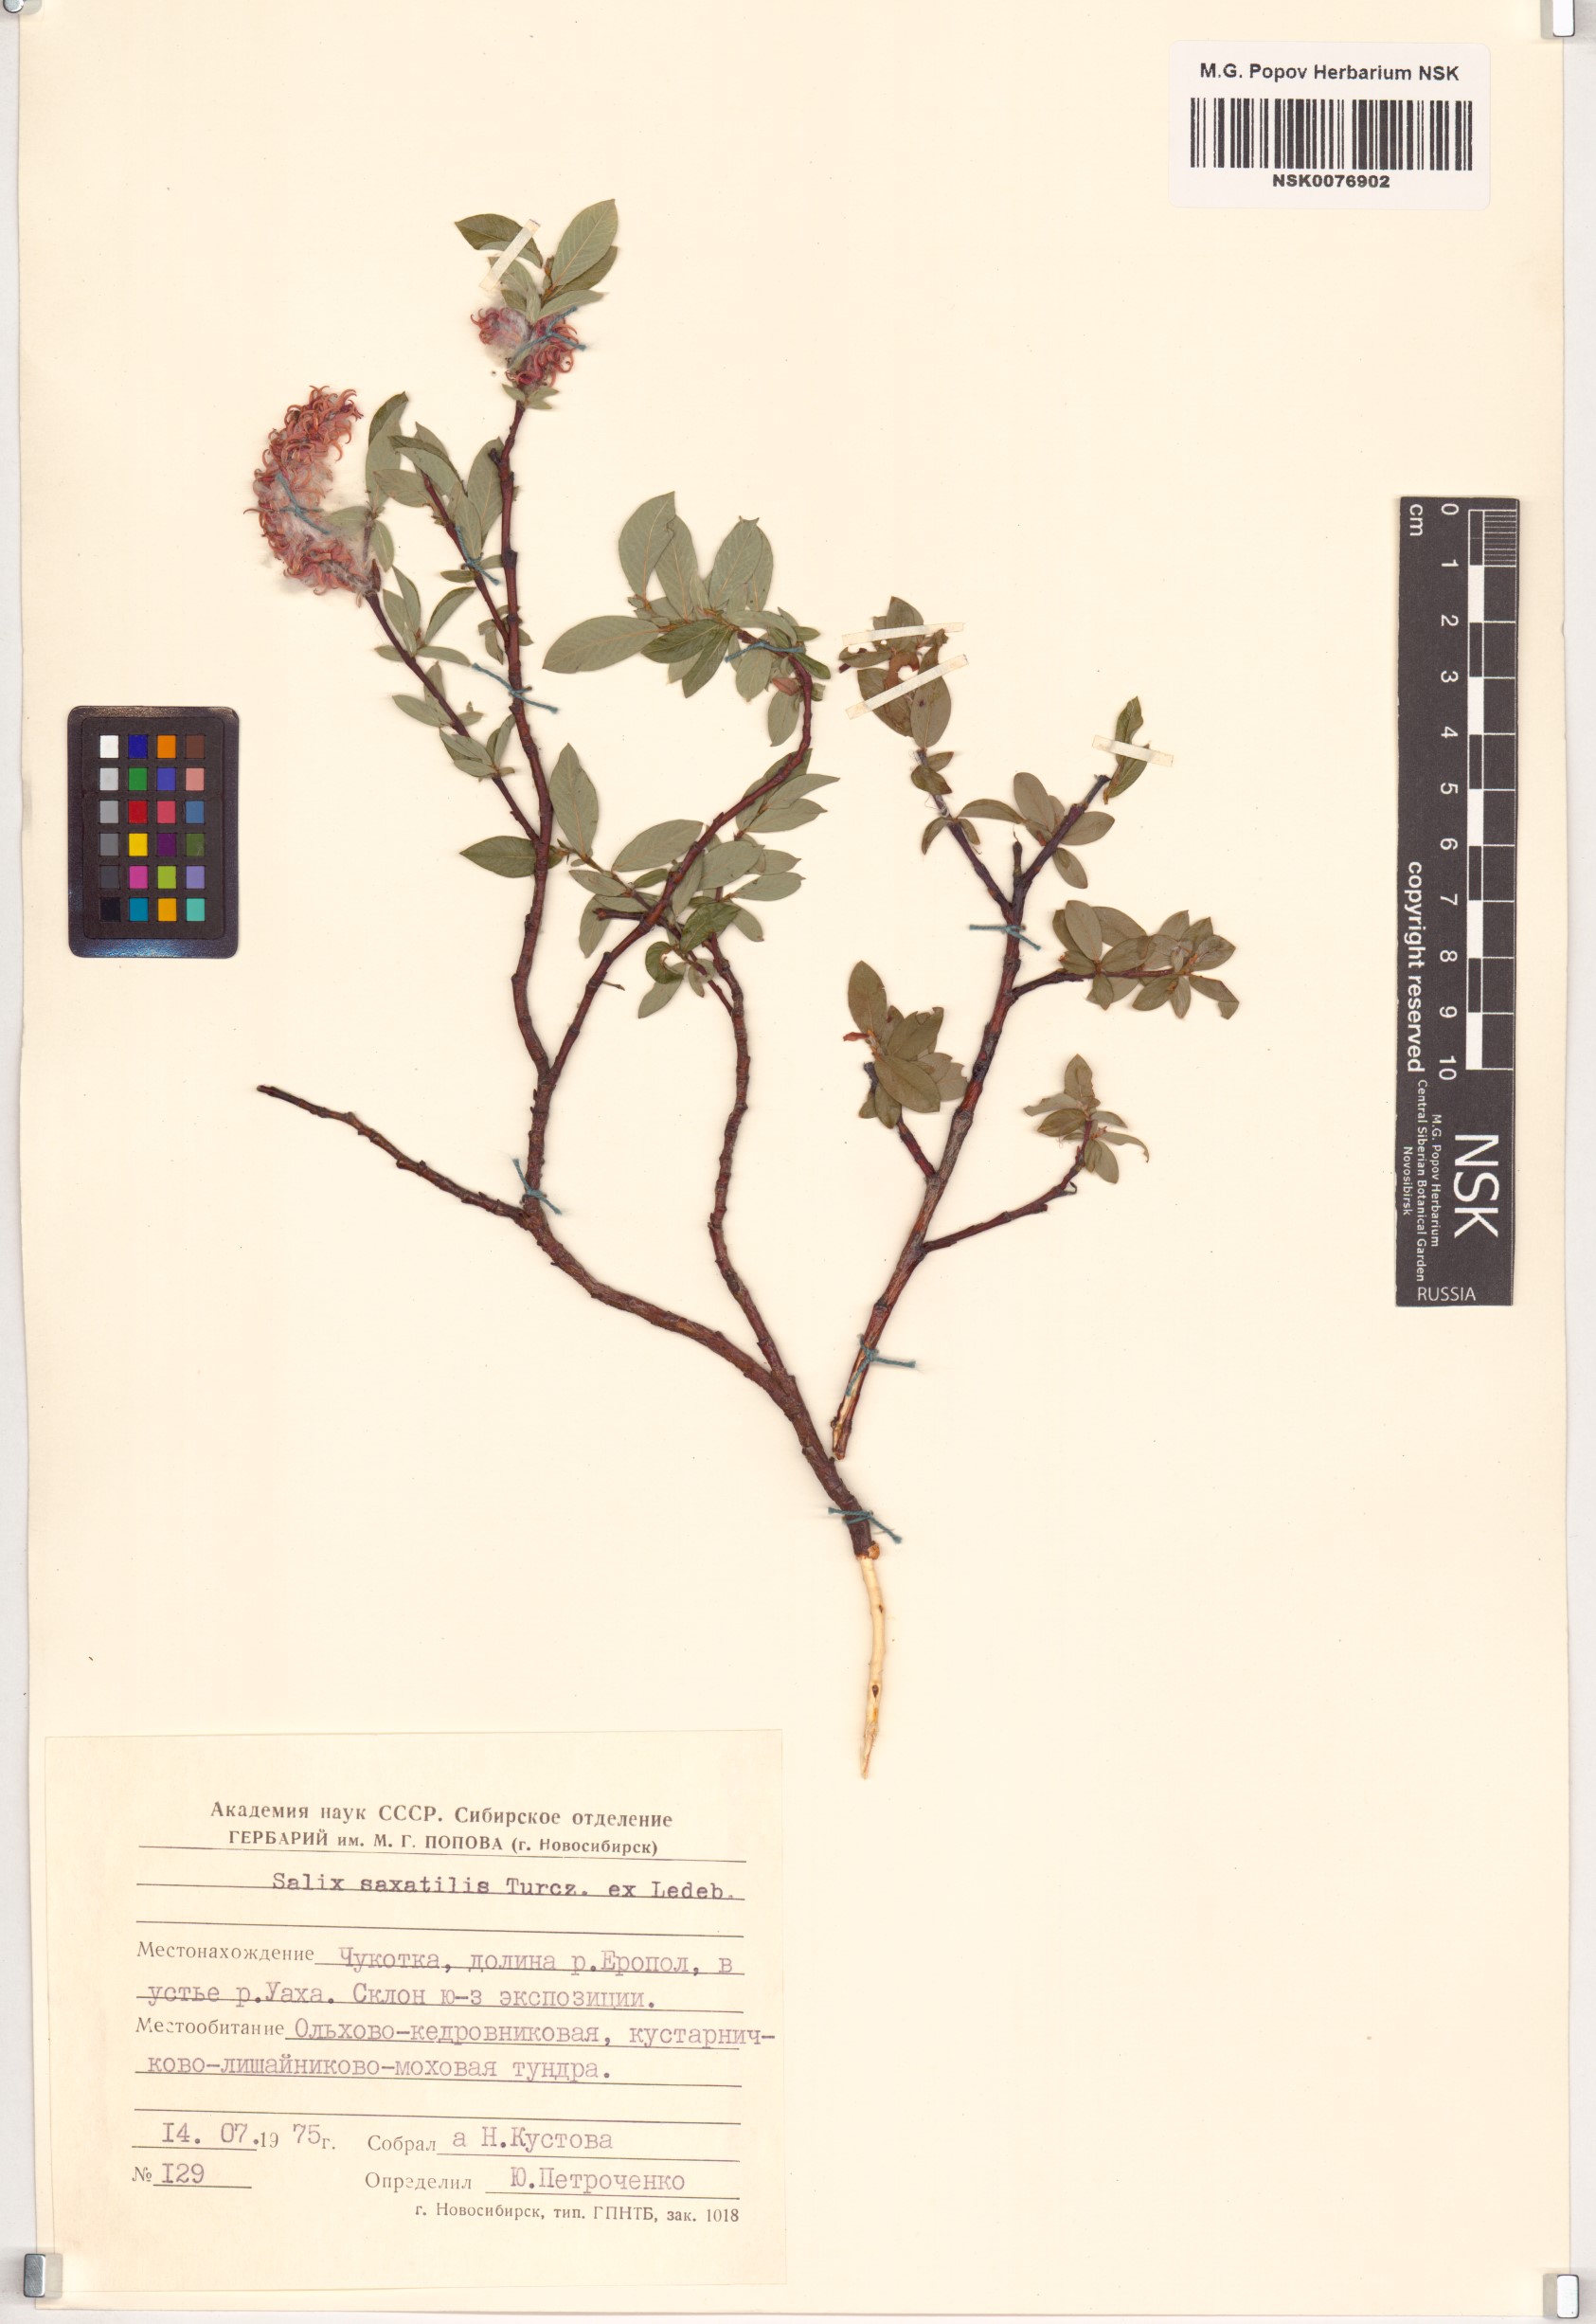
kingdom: Plantae
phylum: Tracheophyta
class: Magnoliopsida
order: Malpighiales
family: Salicaceae
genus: Salix
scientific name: Salix saxatilis
